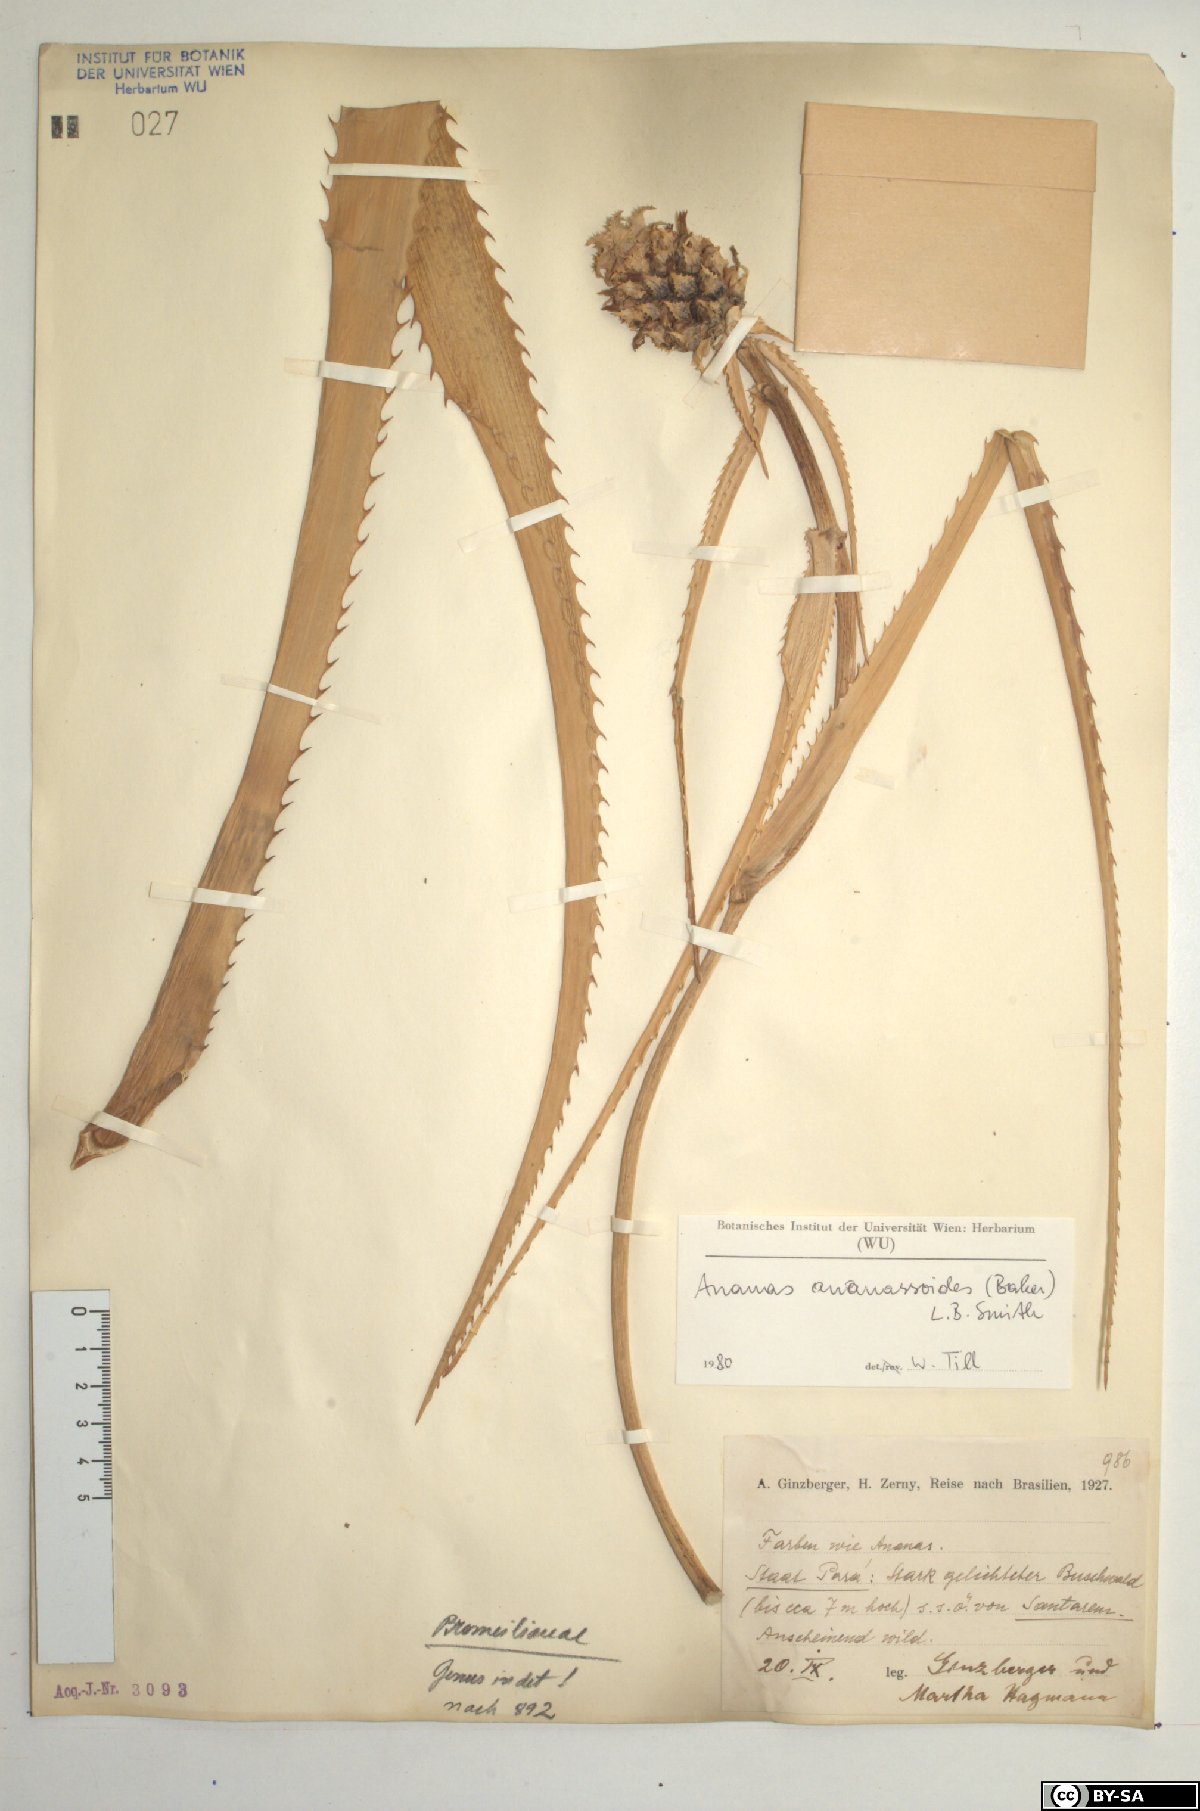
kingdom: Plantae
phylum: Tracheophyta
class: Liliopsida
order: Poales
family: Bromeliaceae
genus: Ananas
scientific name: Ananas comosus
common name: Pineapple
